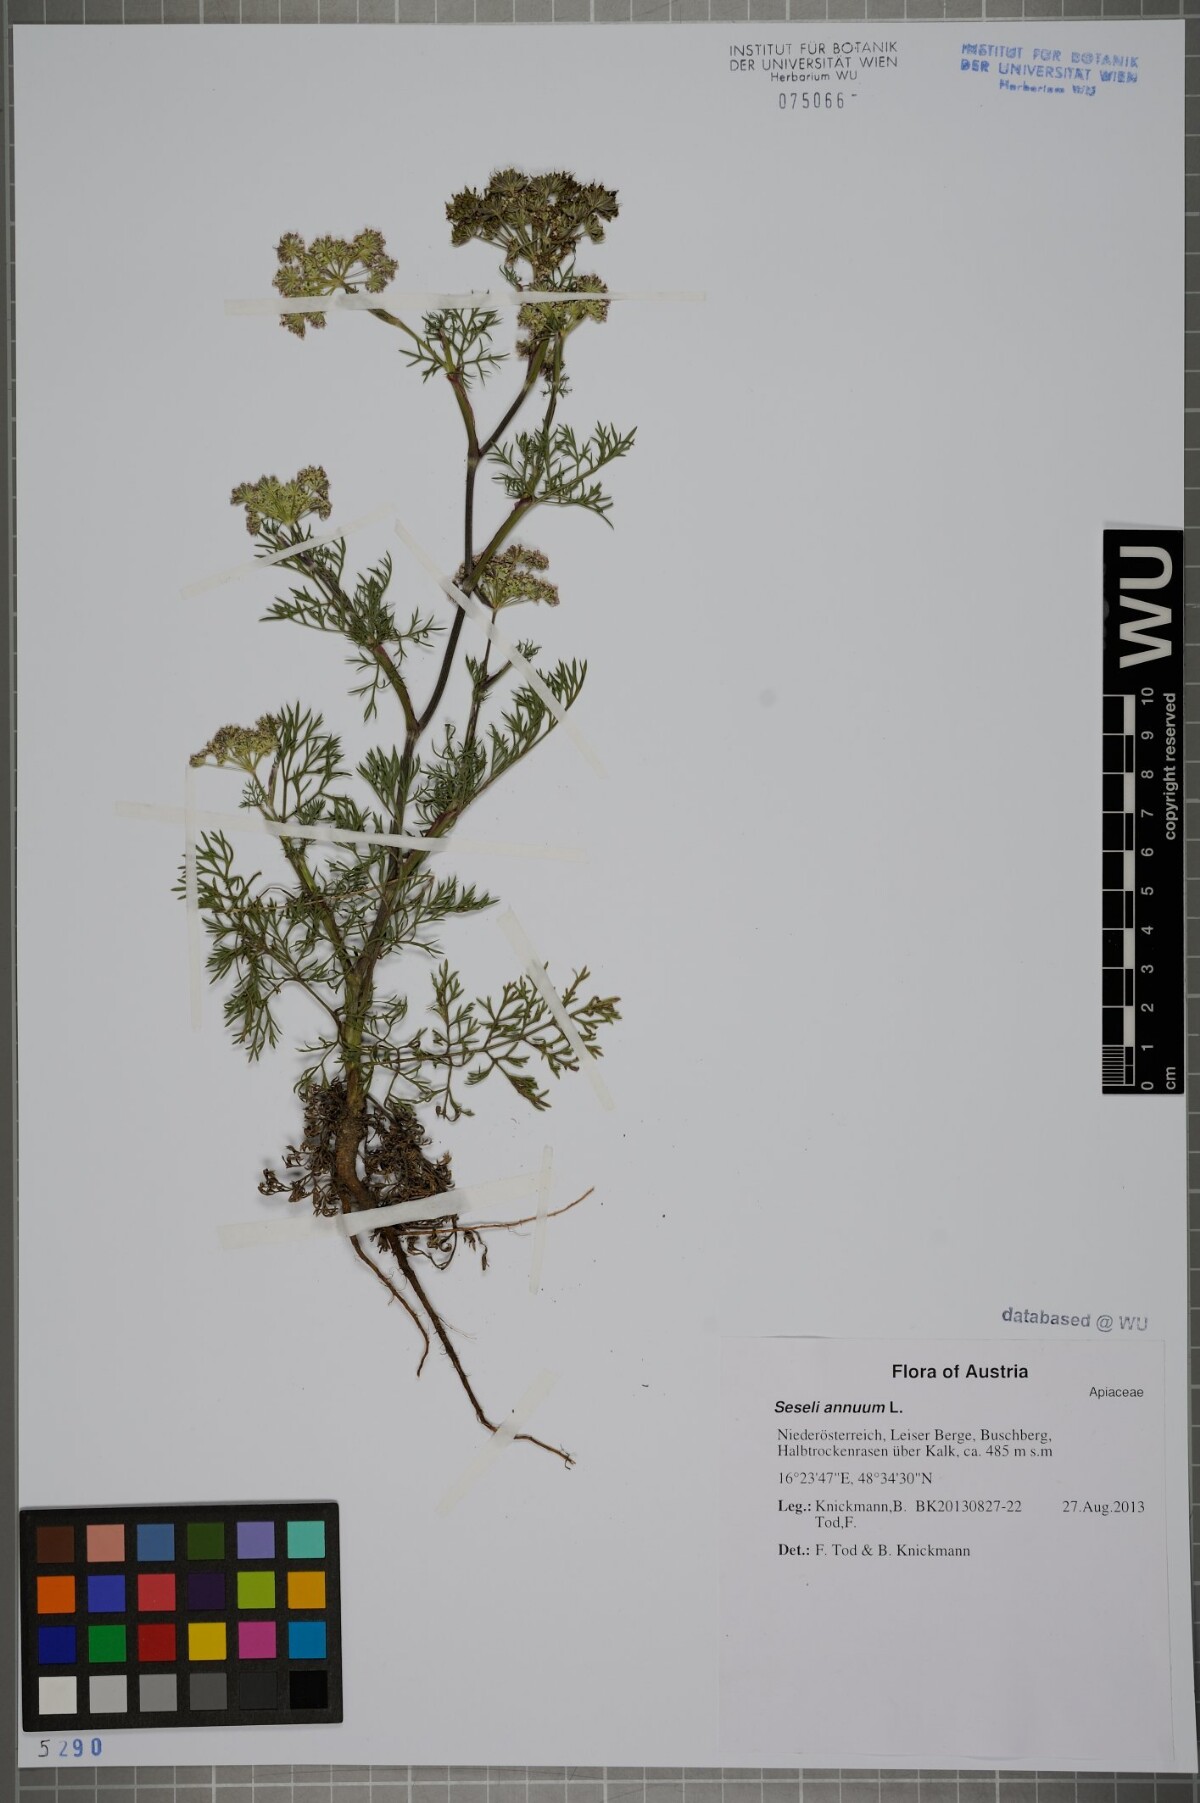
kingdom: Plantae
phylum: Tracheophyta
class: Magnoliopsida
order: Apiales
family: Apiaceae
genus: Seseli
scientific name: Seseli annuum
